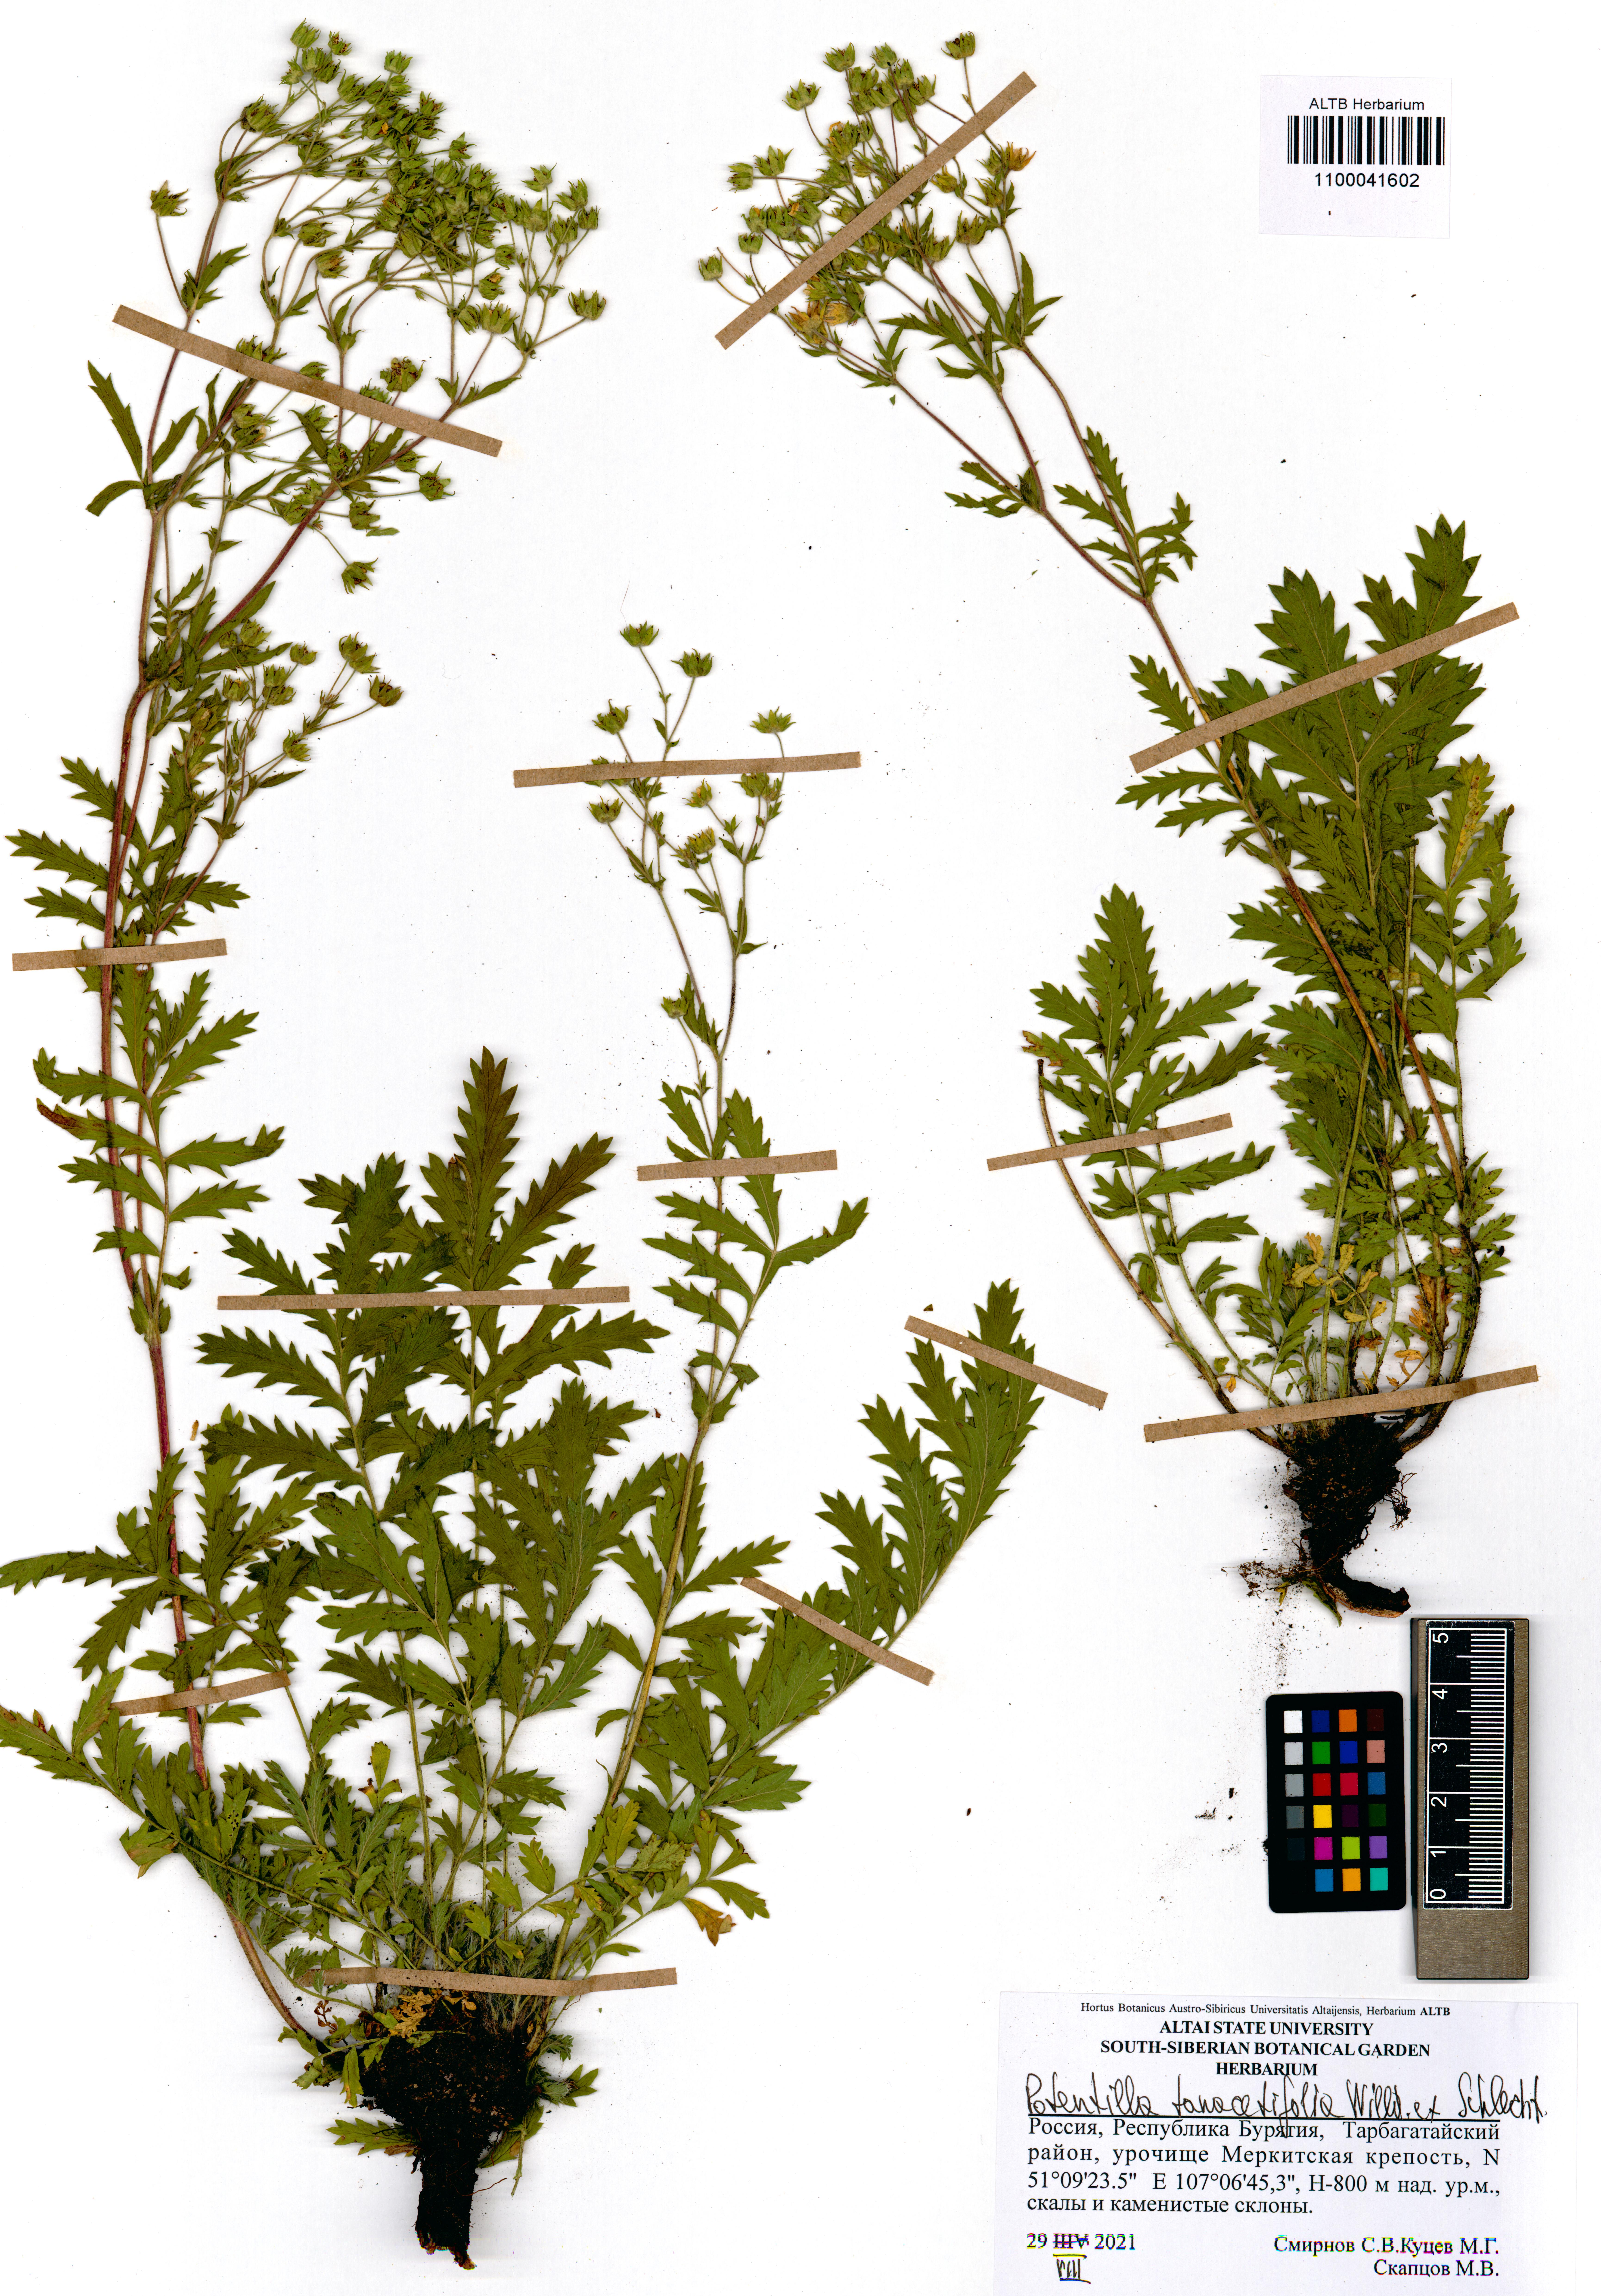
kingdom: Plantae
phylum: Tracheophyta
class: Magnoliopsida
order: Rosales
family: Rosaceae
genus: Potentilla
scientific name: Potentilla tanacetifolia
